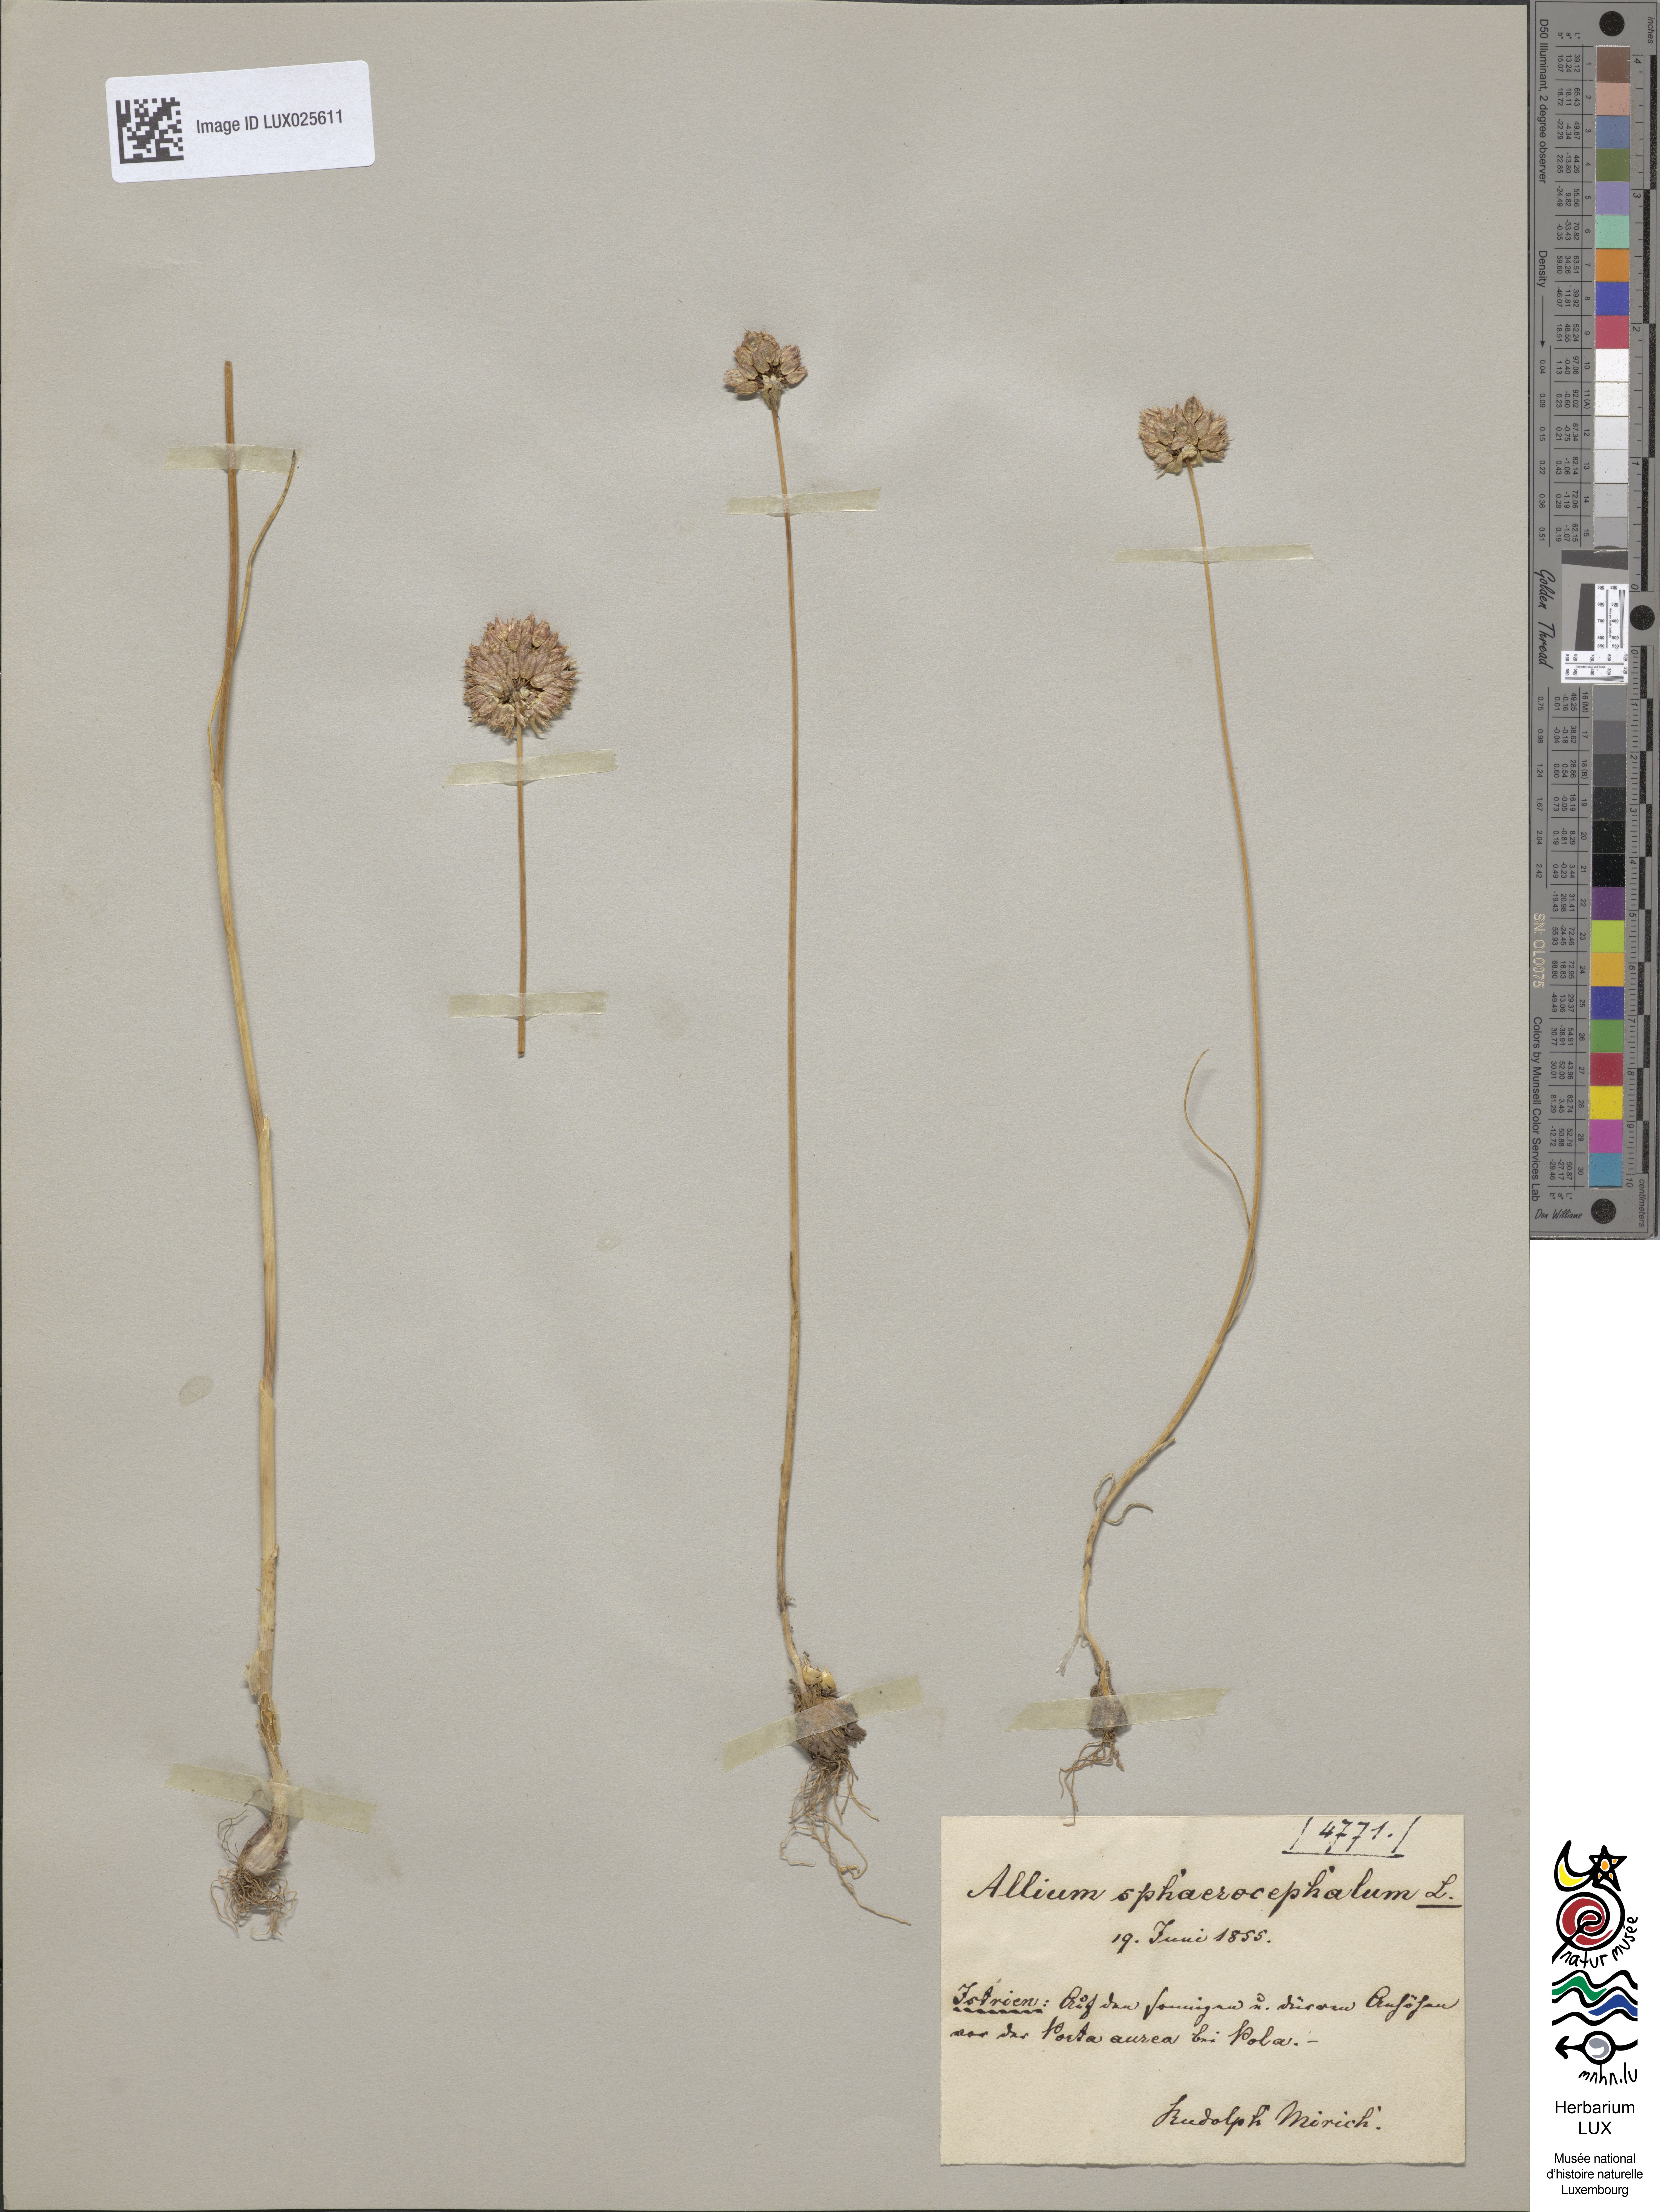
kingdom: Plantae
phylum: Tracheophyta
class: Liliopsida
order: Asparagales
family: Amaryllidaceae
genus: Allium
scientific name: Allium sphaerocephalon
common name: Round-headed leek
